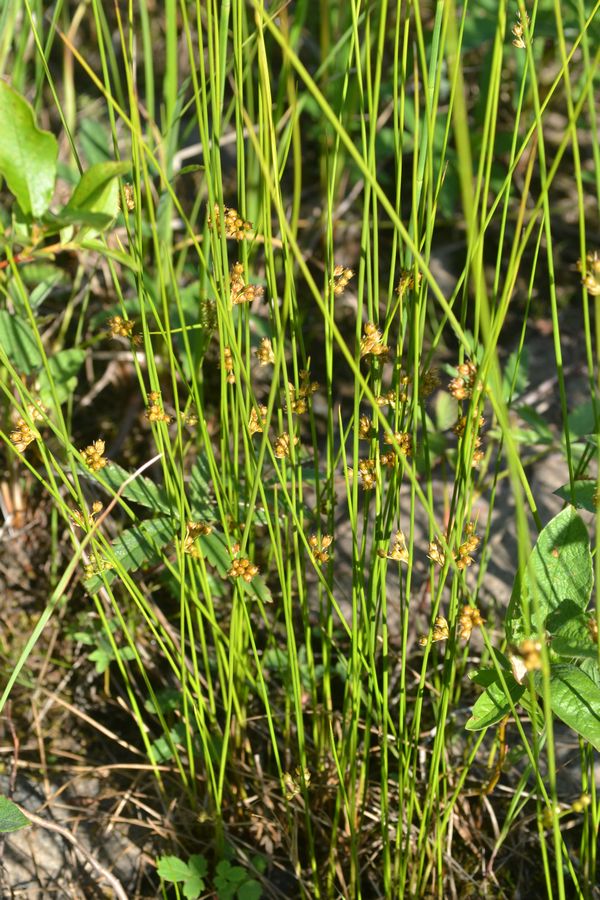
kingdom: Plantae
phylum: Tracheophyta
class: Liliopsida
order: Poales
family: Juncaceae
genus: Juncus
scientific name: Juncus filiformis
